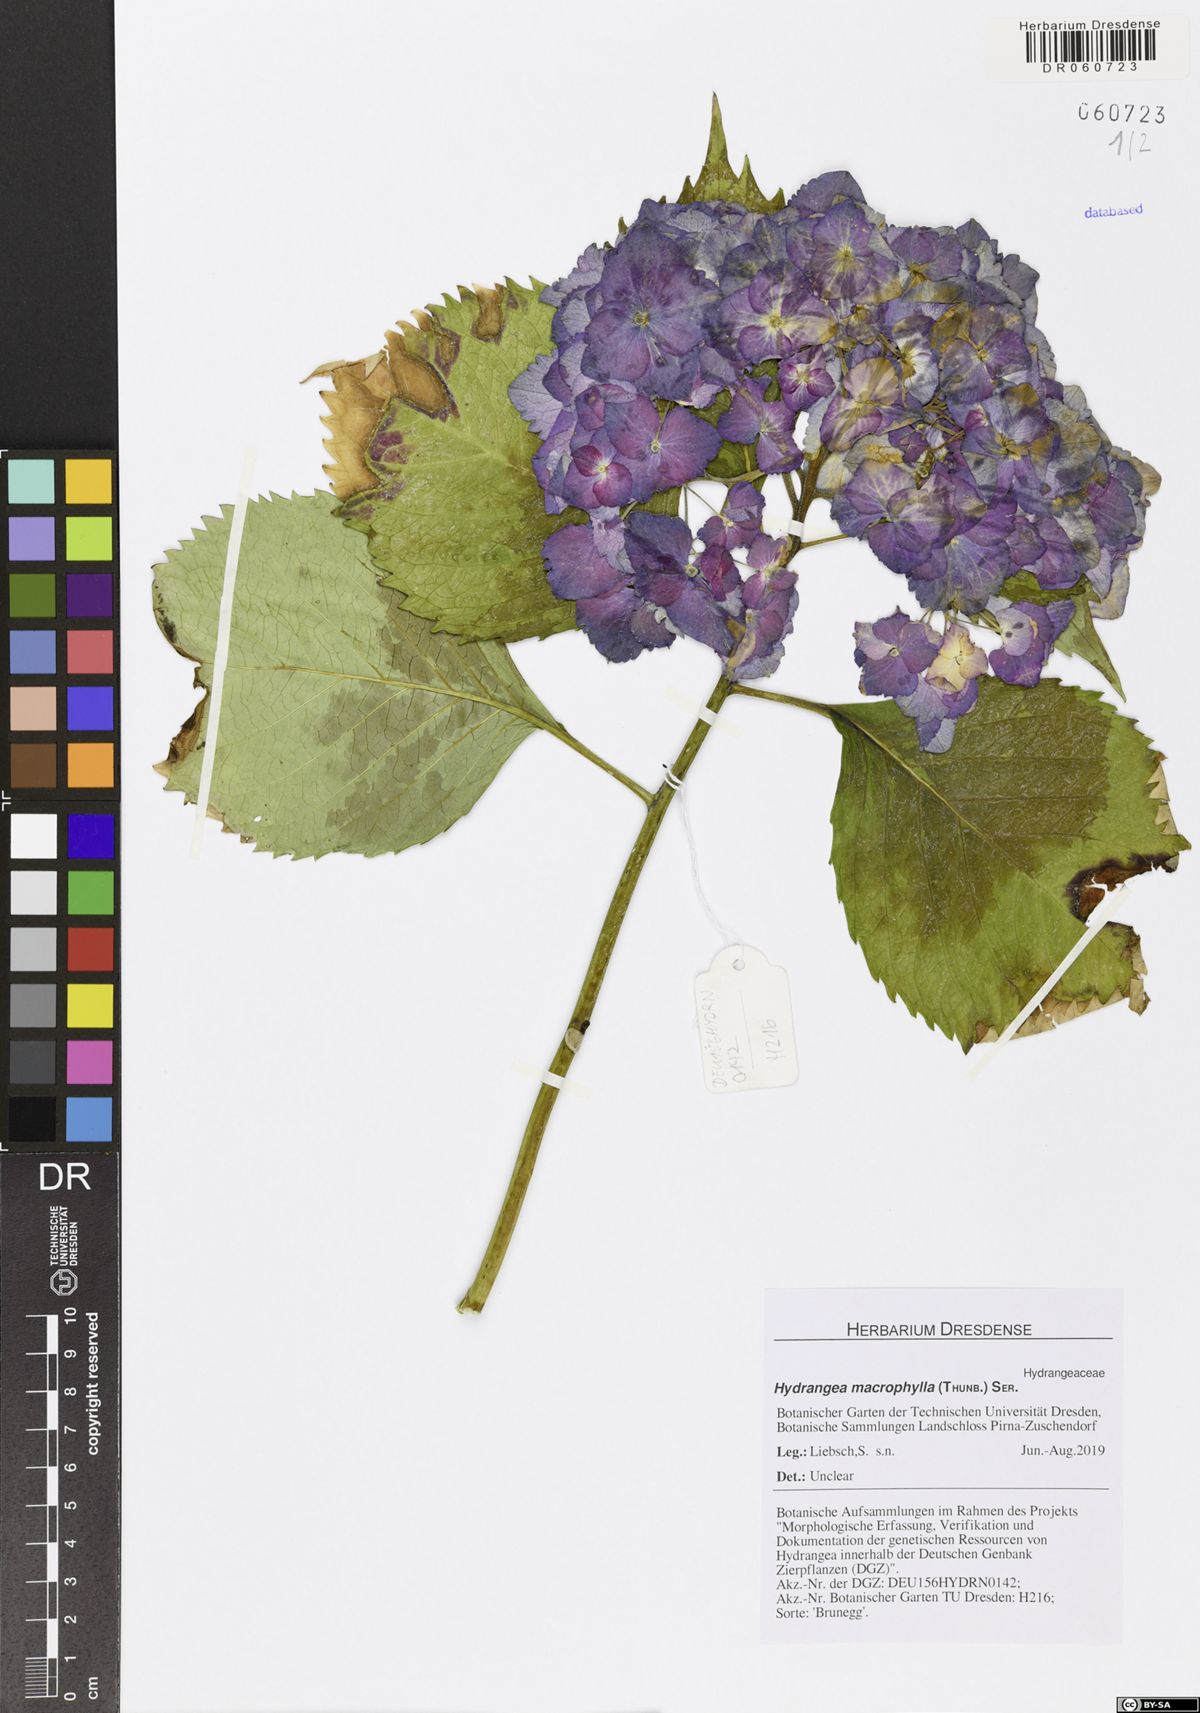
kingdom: Plantae
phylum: Tracheophyta
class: Magnoliopsida
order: Cornales
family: Hydrangeaceae
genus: Hydrangea
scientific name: Hydrangea macrophylla
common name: Hydrangea
